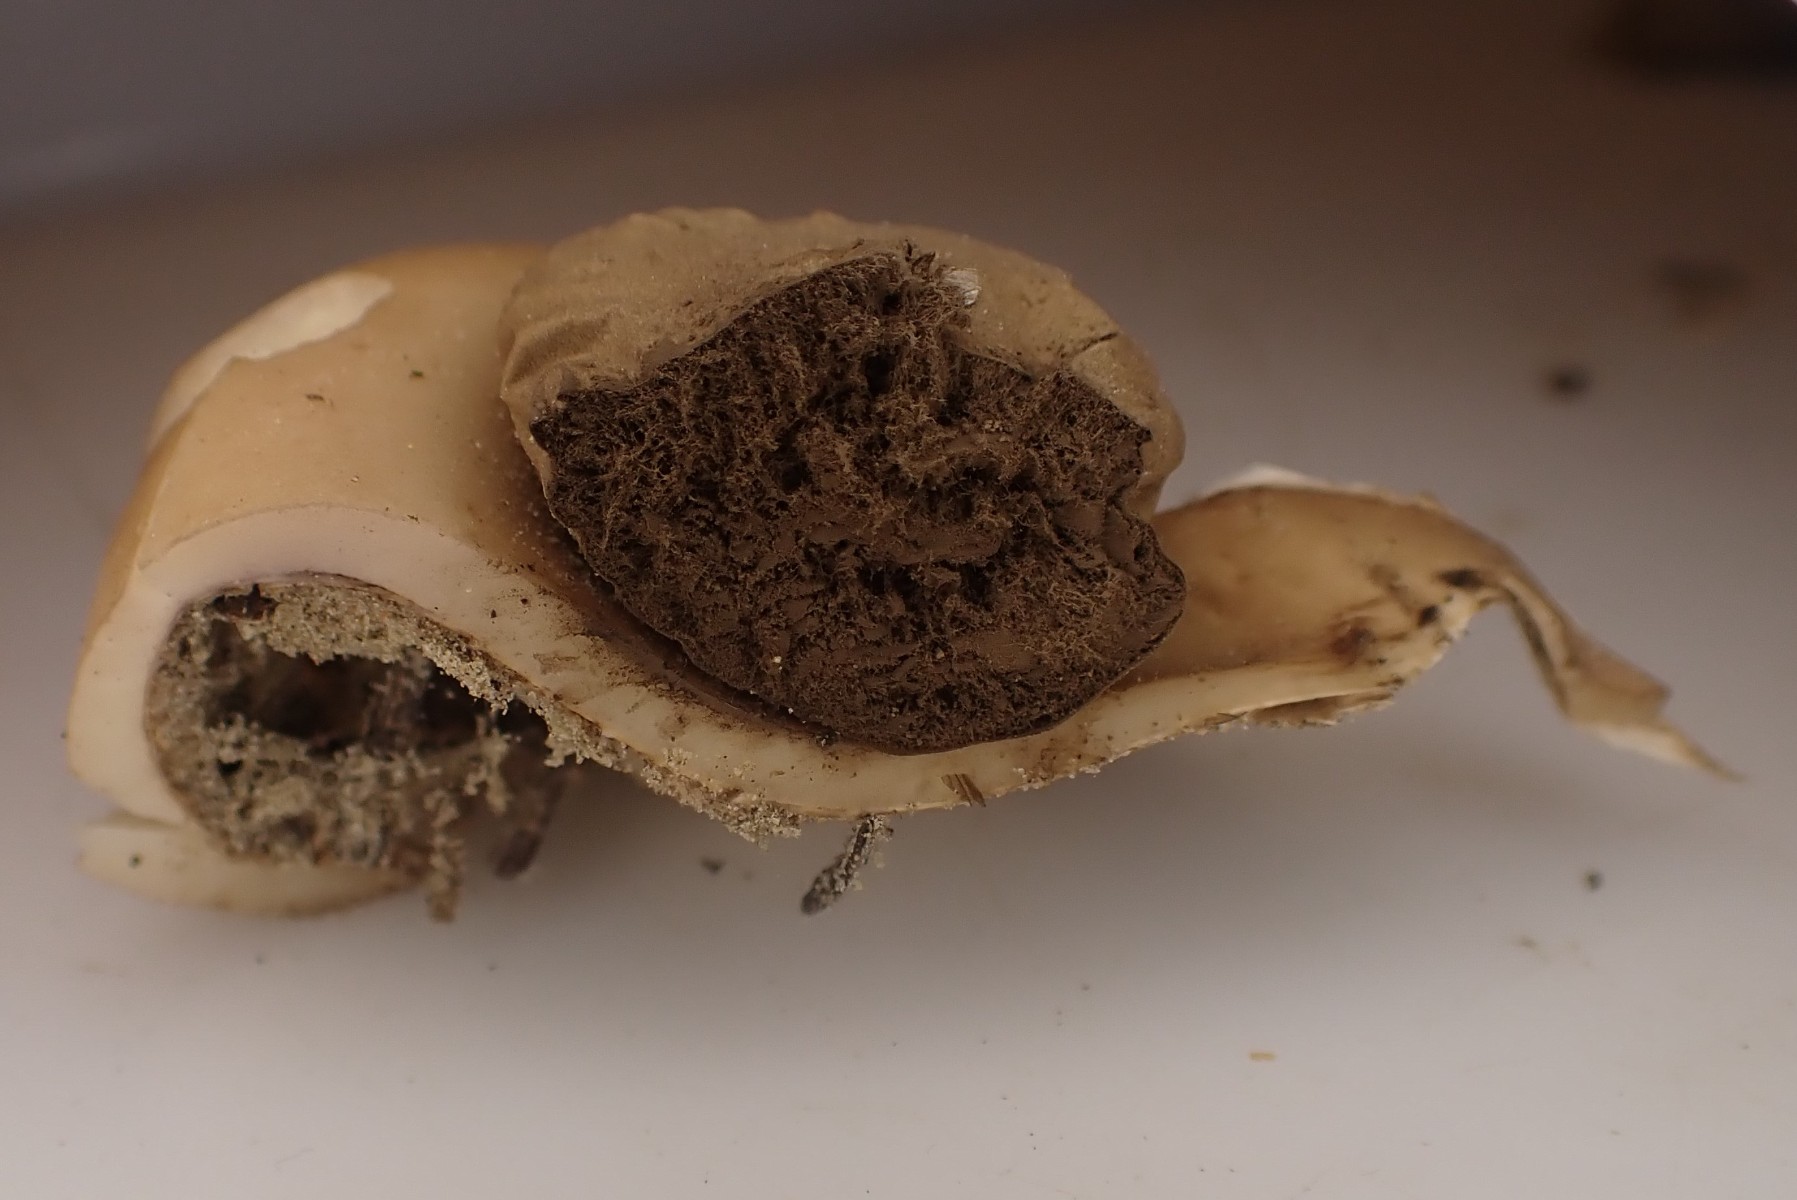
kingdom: Fungi
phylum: Basidiomycota
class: Agaricomycetes
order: Geastrales
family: Geastraceae
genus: Geastrum
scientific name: Geastrum fimbriatum
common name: frynset stjernebold
